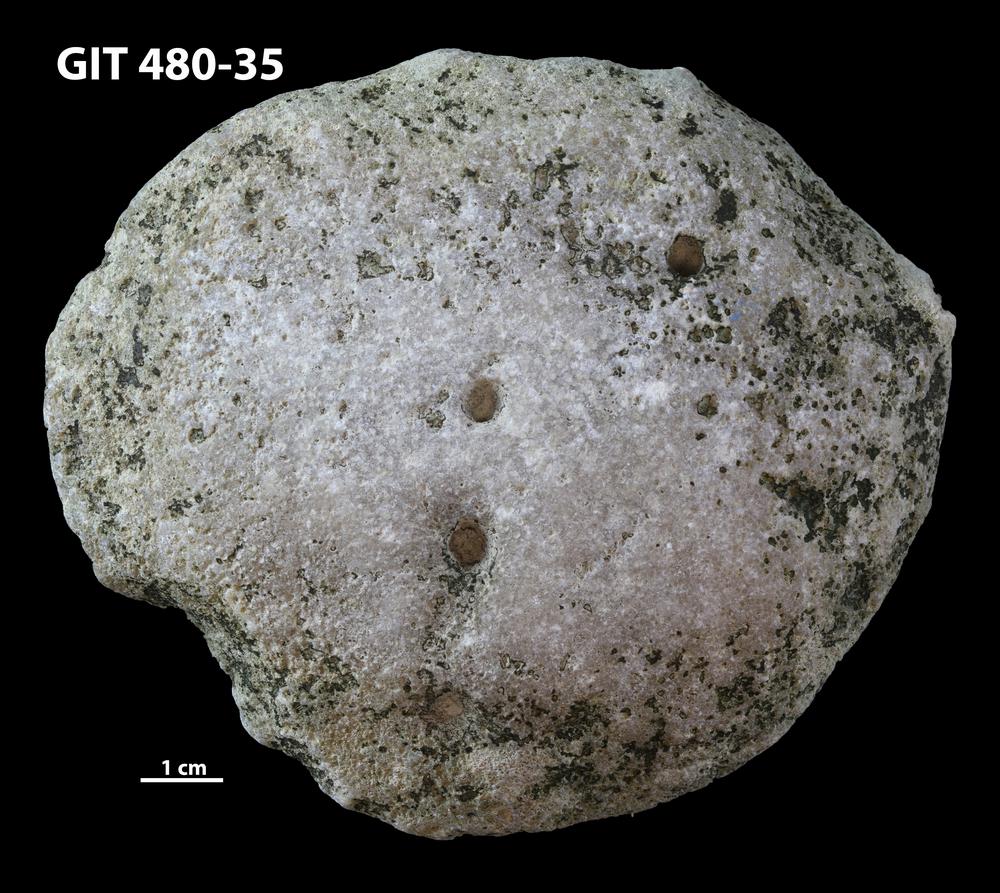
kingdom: Animalia
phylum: Cnidaria
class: Anthozoa
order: Heliolitina
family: Proheliolitidae
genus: Protoheliolites
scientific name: Protoheliolites
